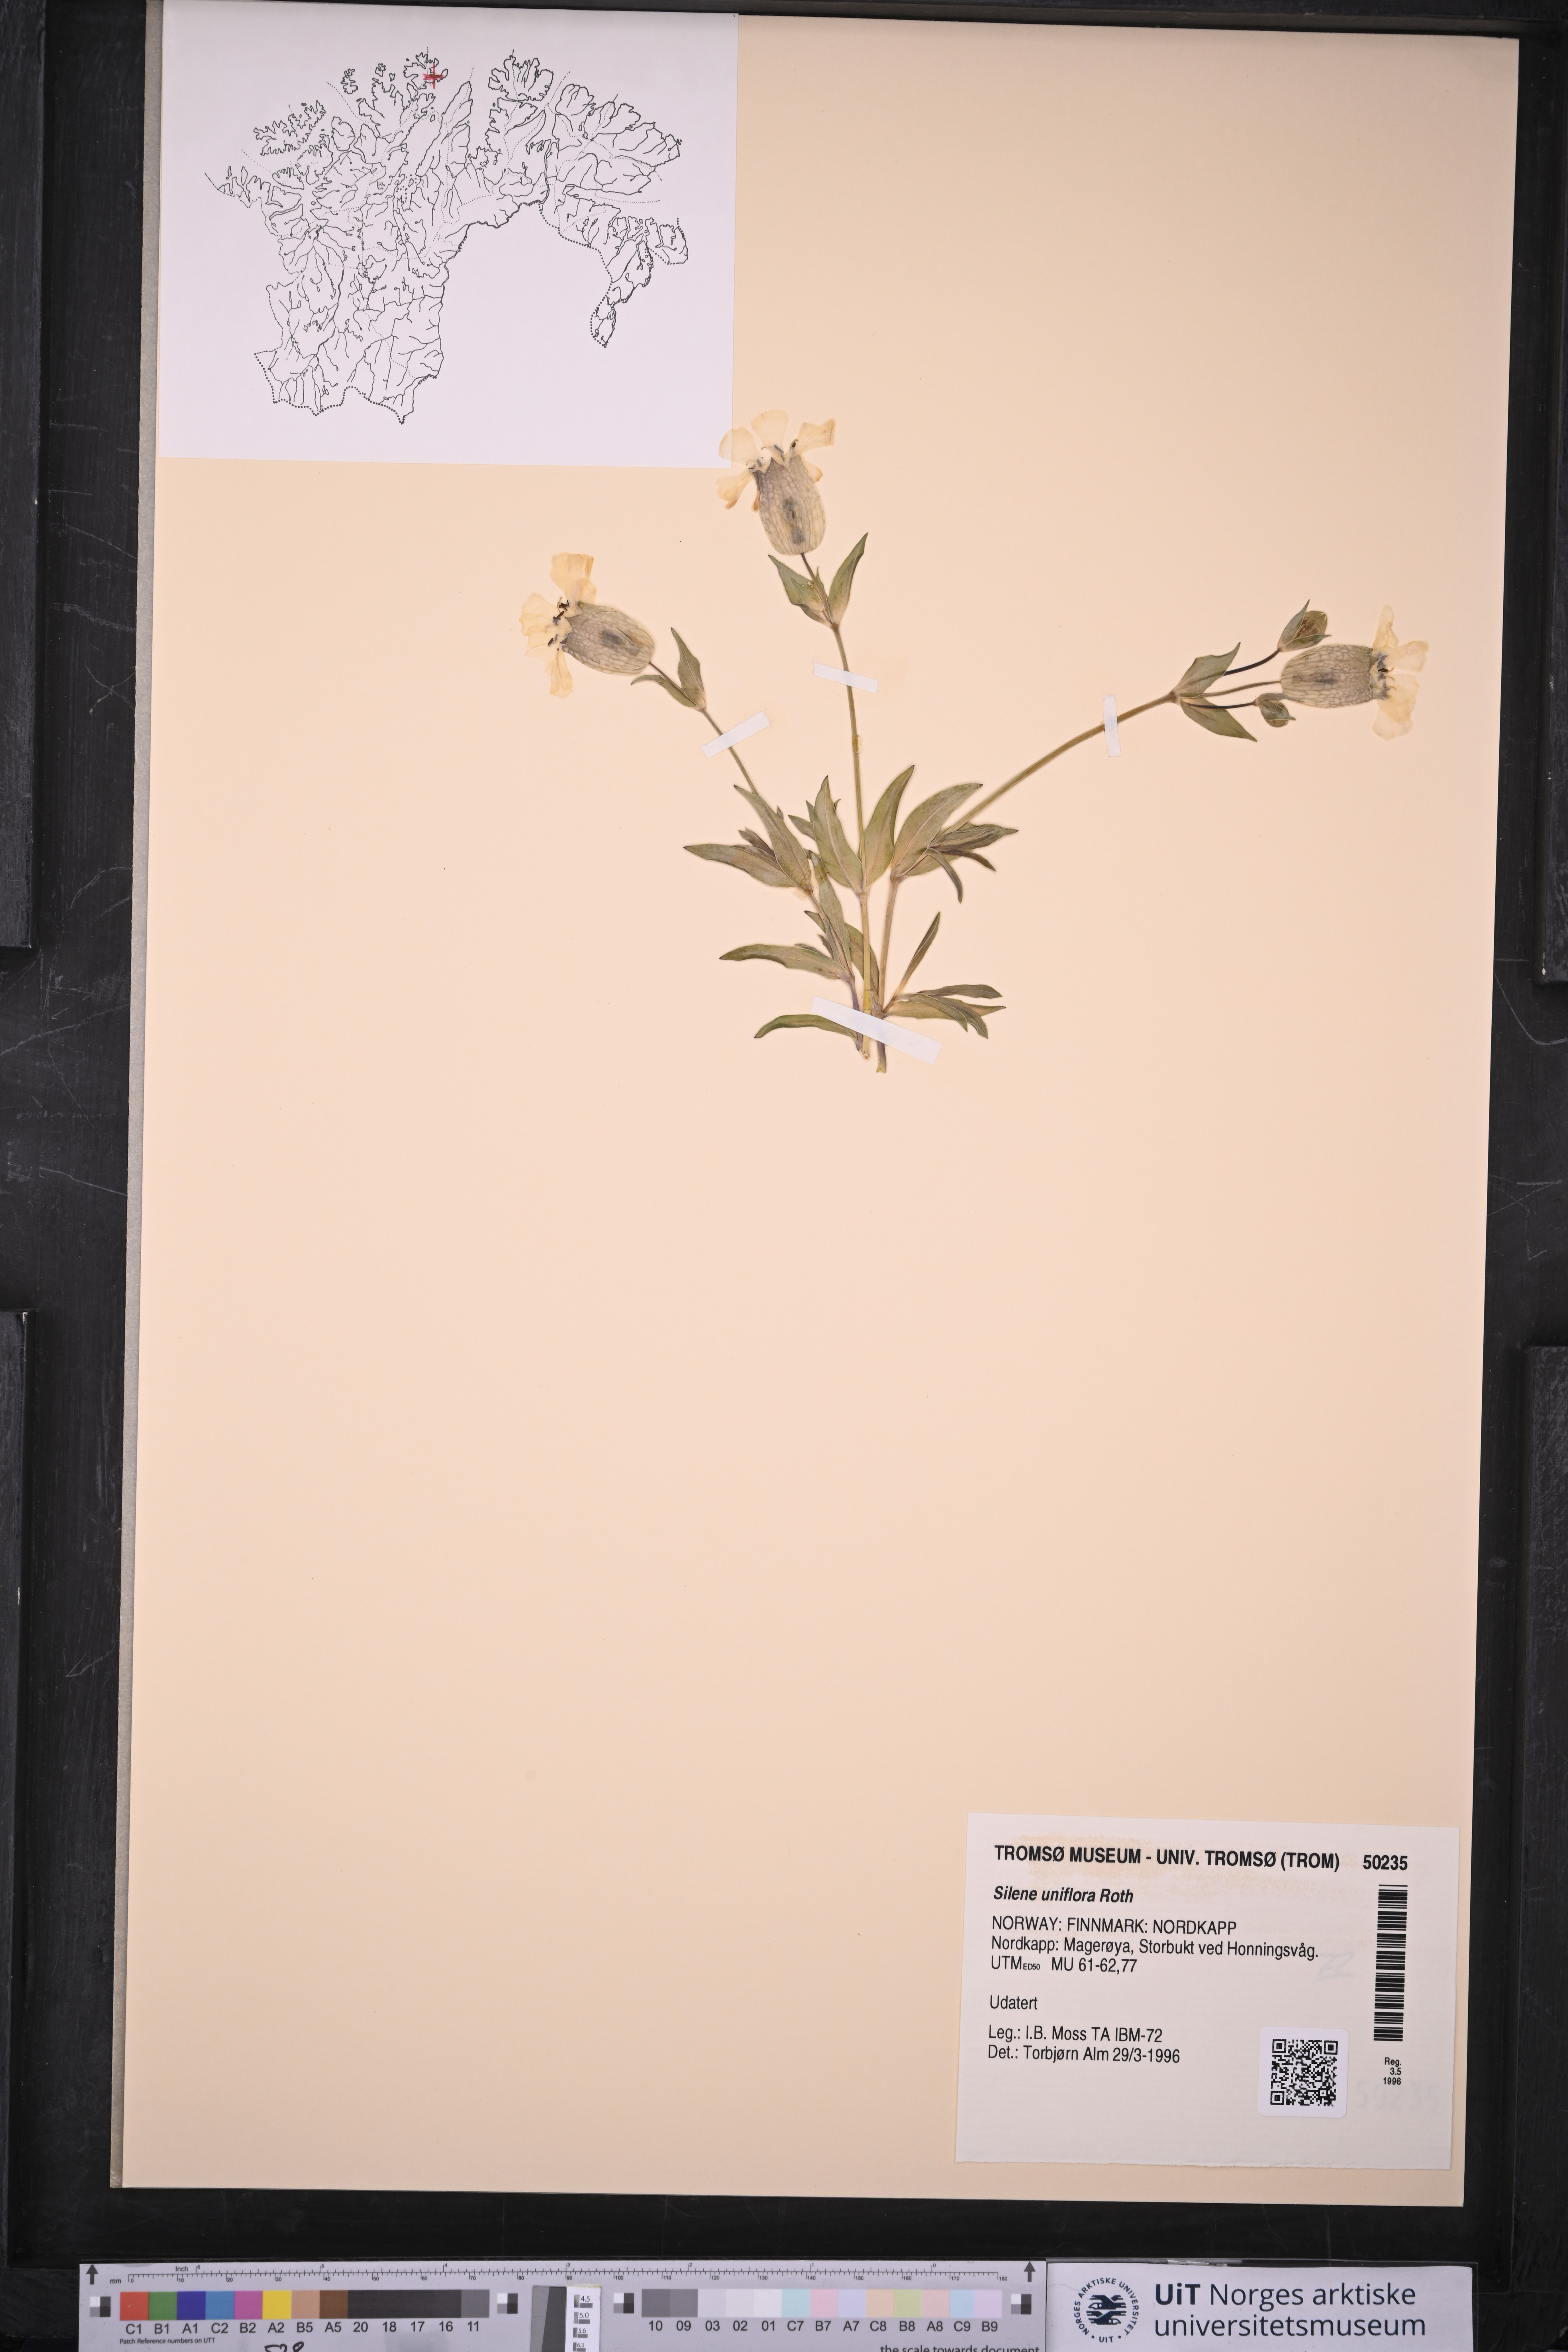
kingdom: Plantae
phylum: Tracheophyta
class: Magnoliopsida
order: Caryophyllales
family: Caryophyllaceae
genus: Silene
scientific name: Silene uniflora
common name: Sea campion
